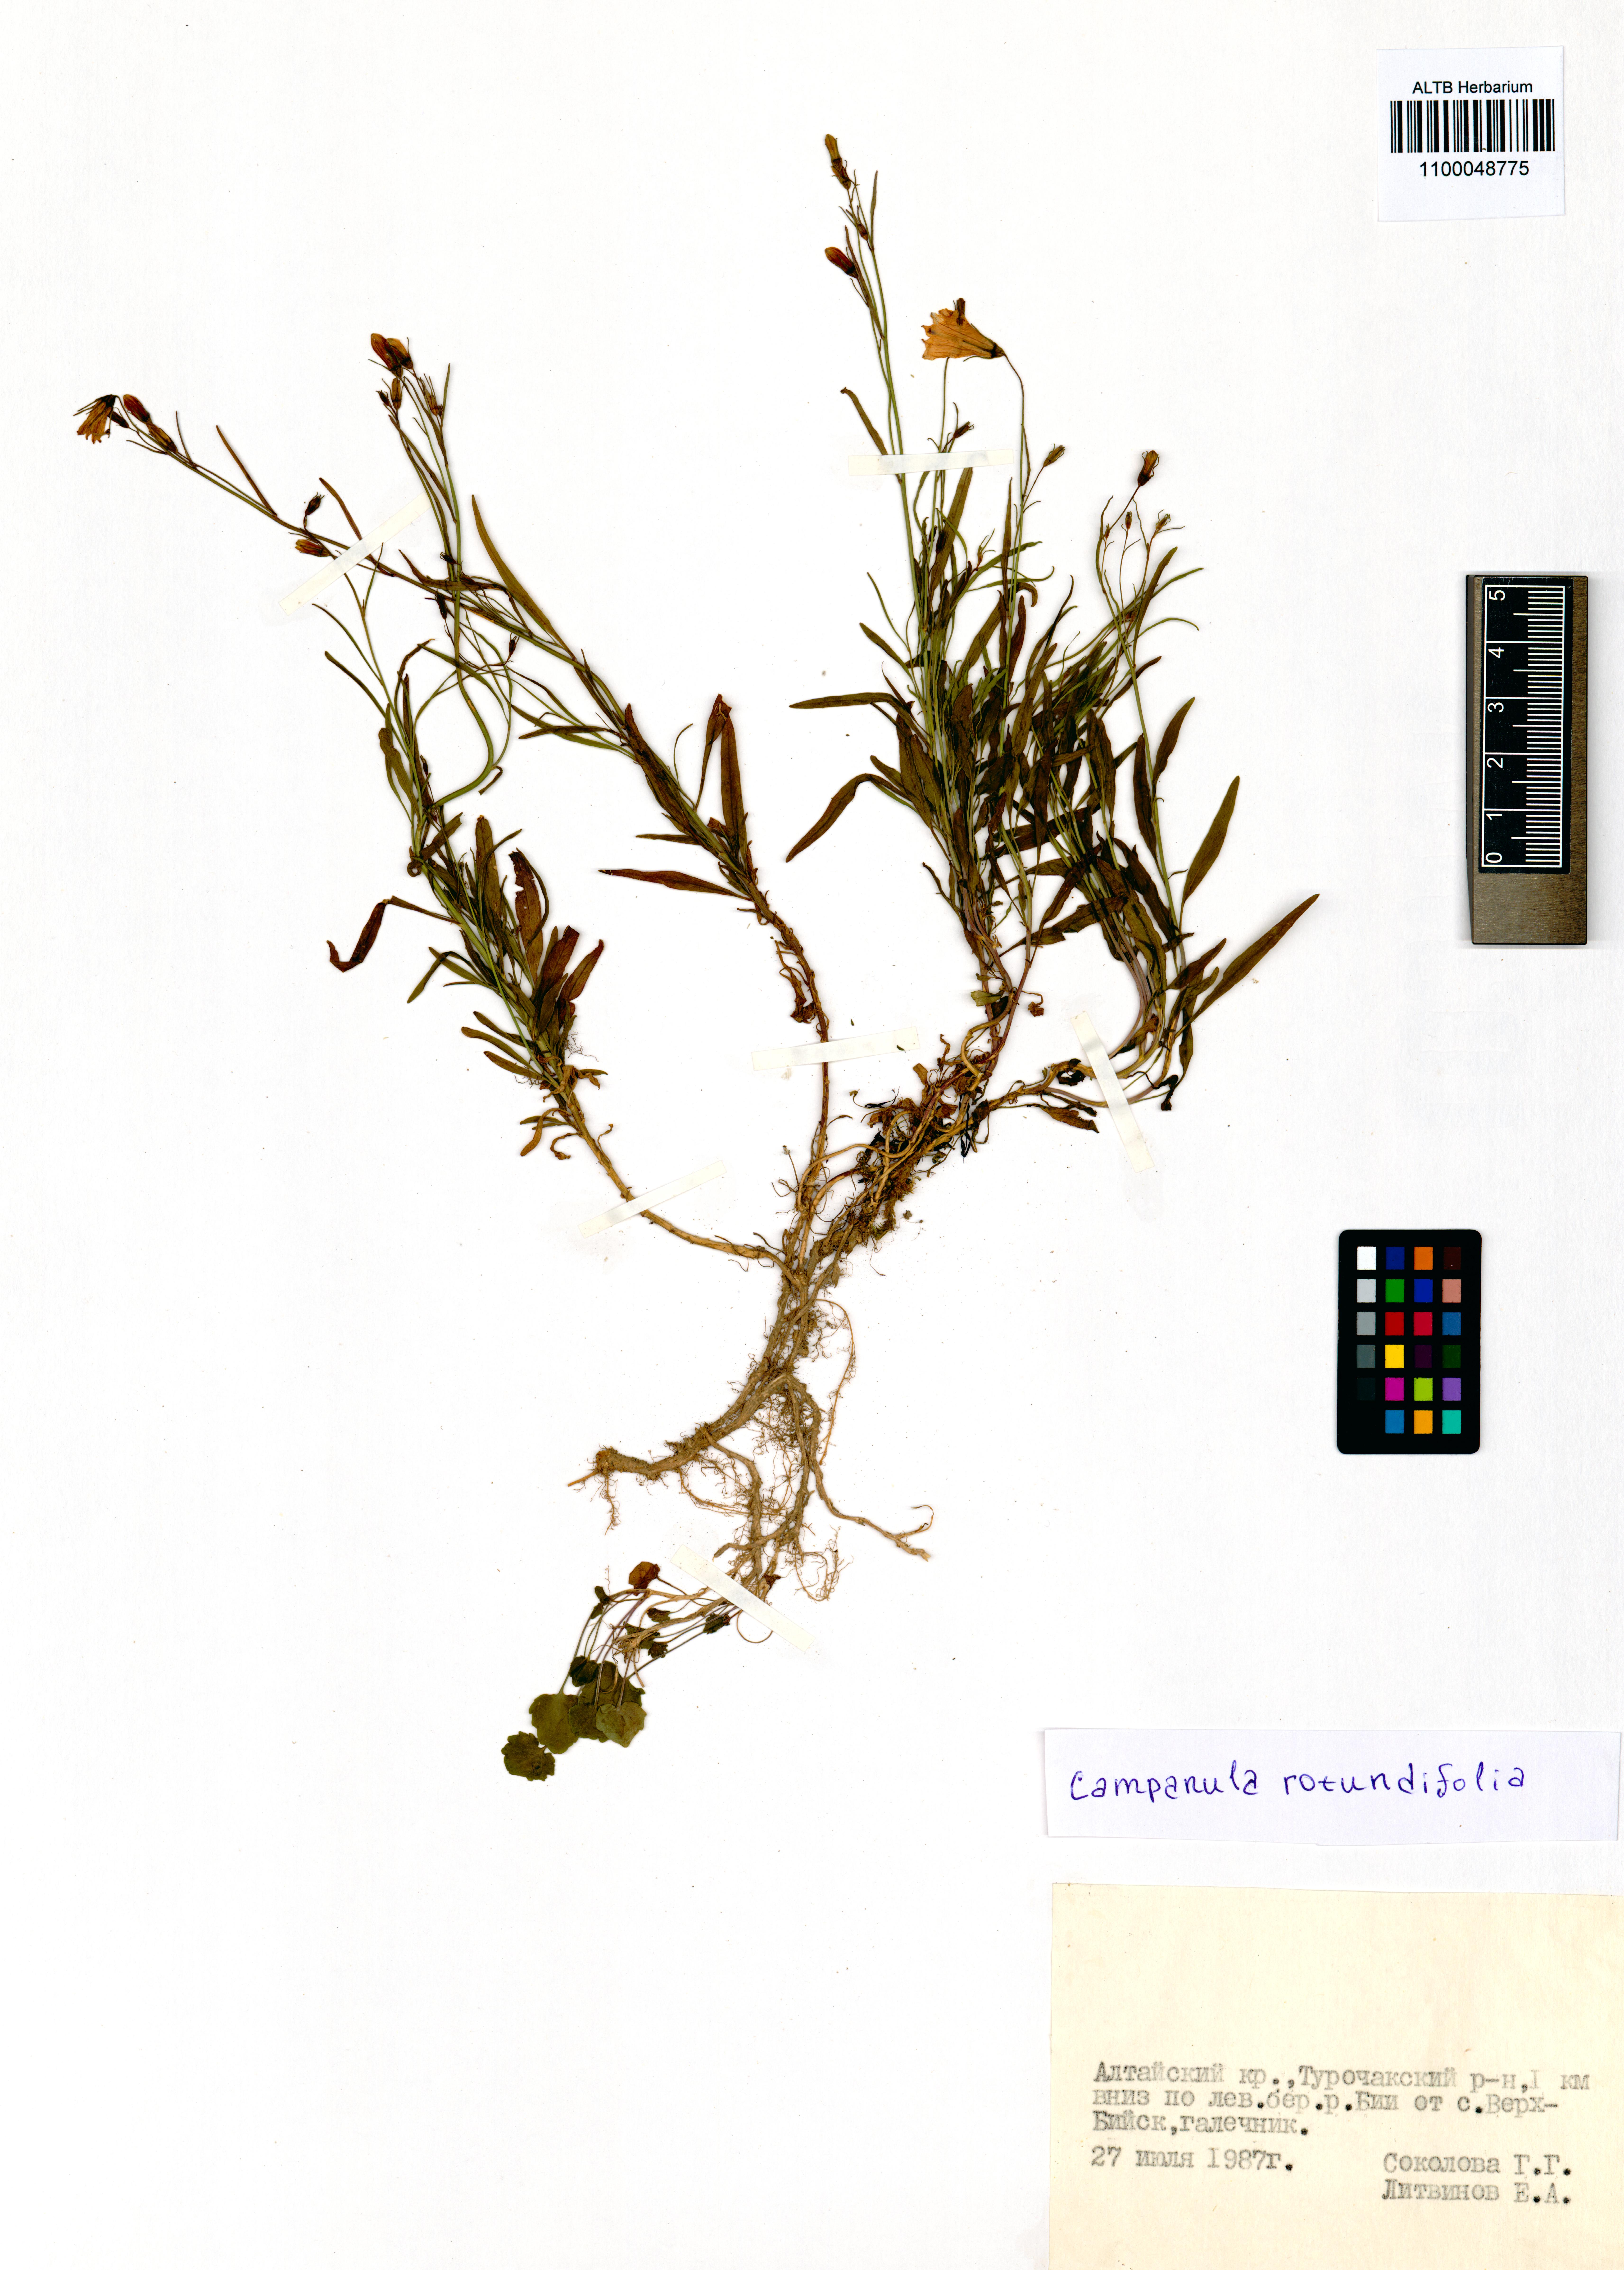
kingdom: Plantae
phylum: Tracheophyta
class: Magnoliopsida
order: Asterales
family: Campanulaceae
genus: Campanula
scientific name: Campanula rotundifolia
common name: Harebell
